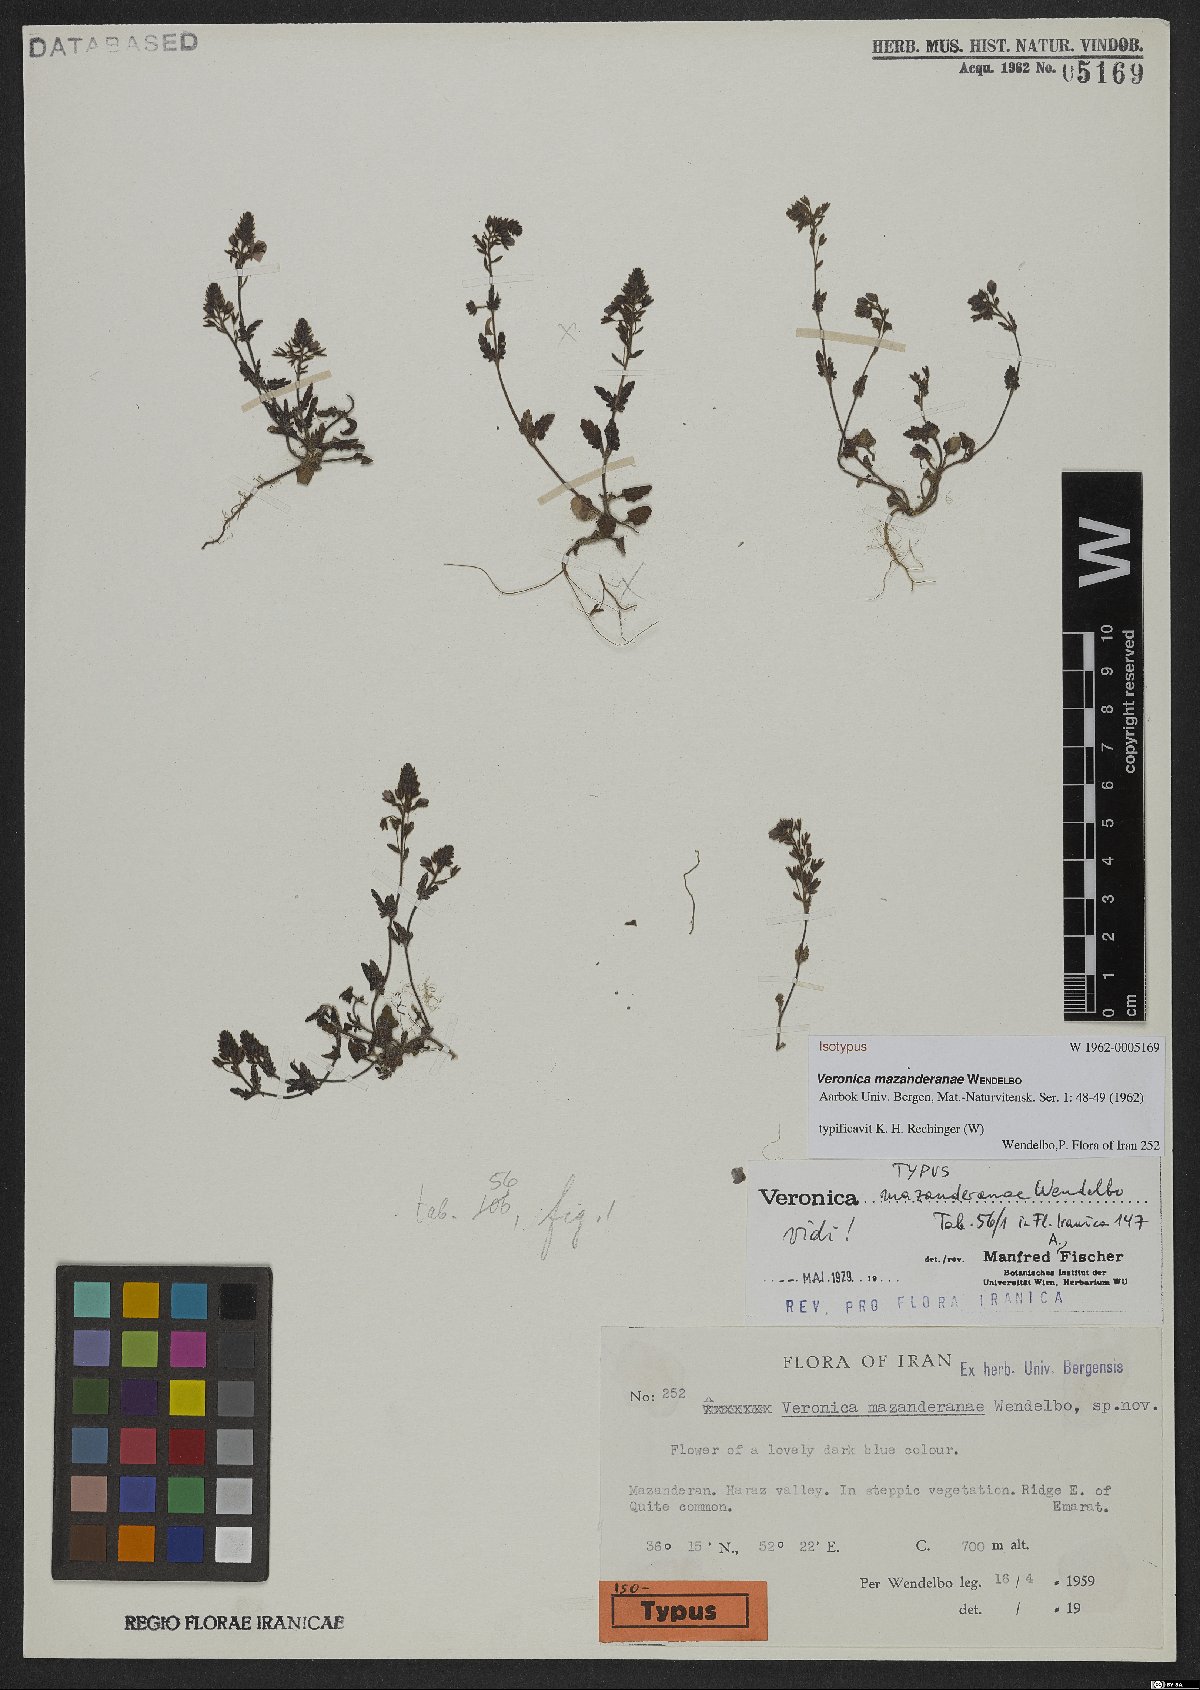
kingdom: Plantae
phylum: Tracheophyta
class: Magnoliopsida
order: Lamiales
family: Plantaginaceae
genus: Veronica
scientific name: Veronica mazanderanae
